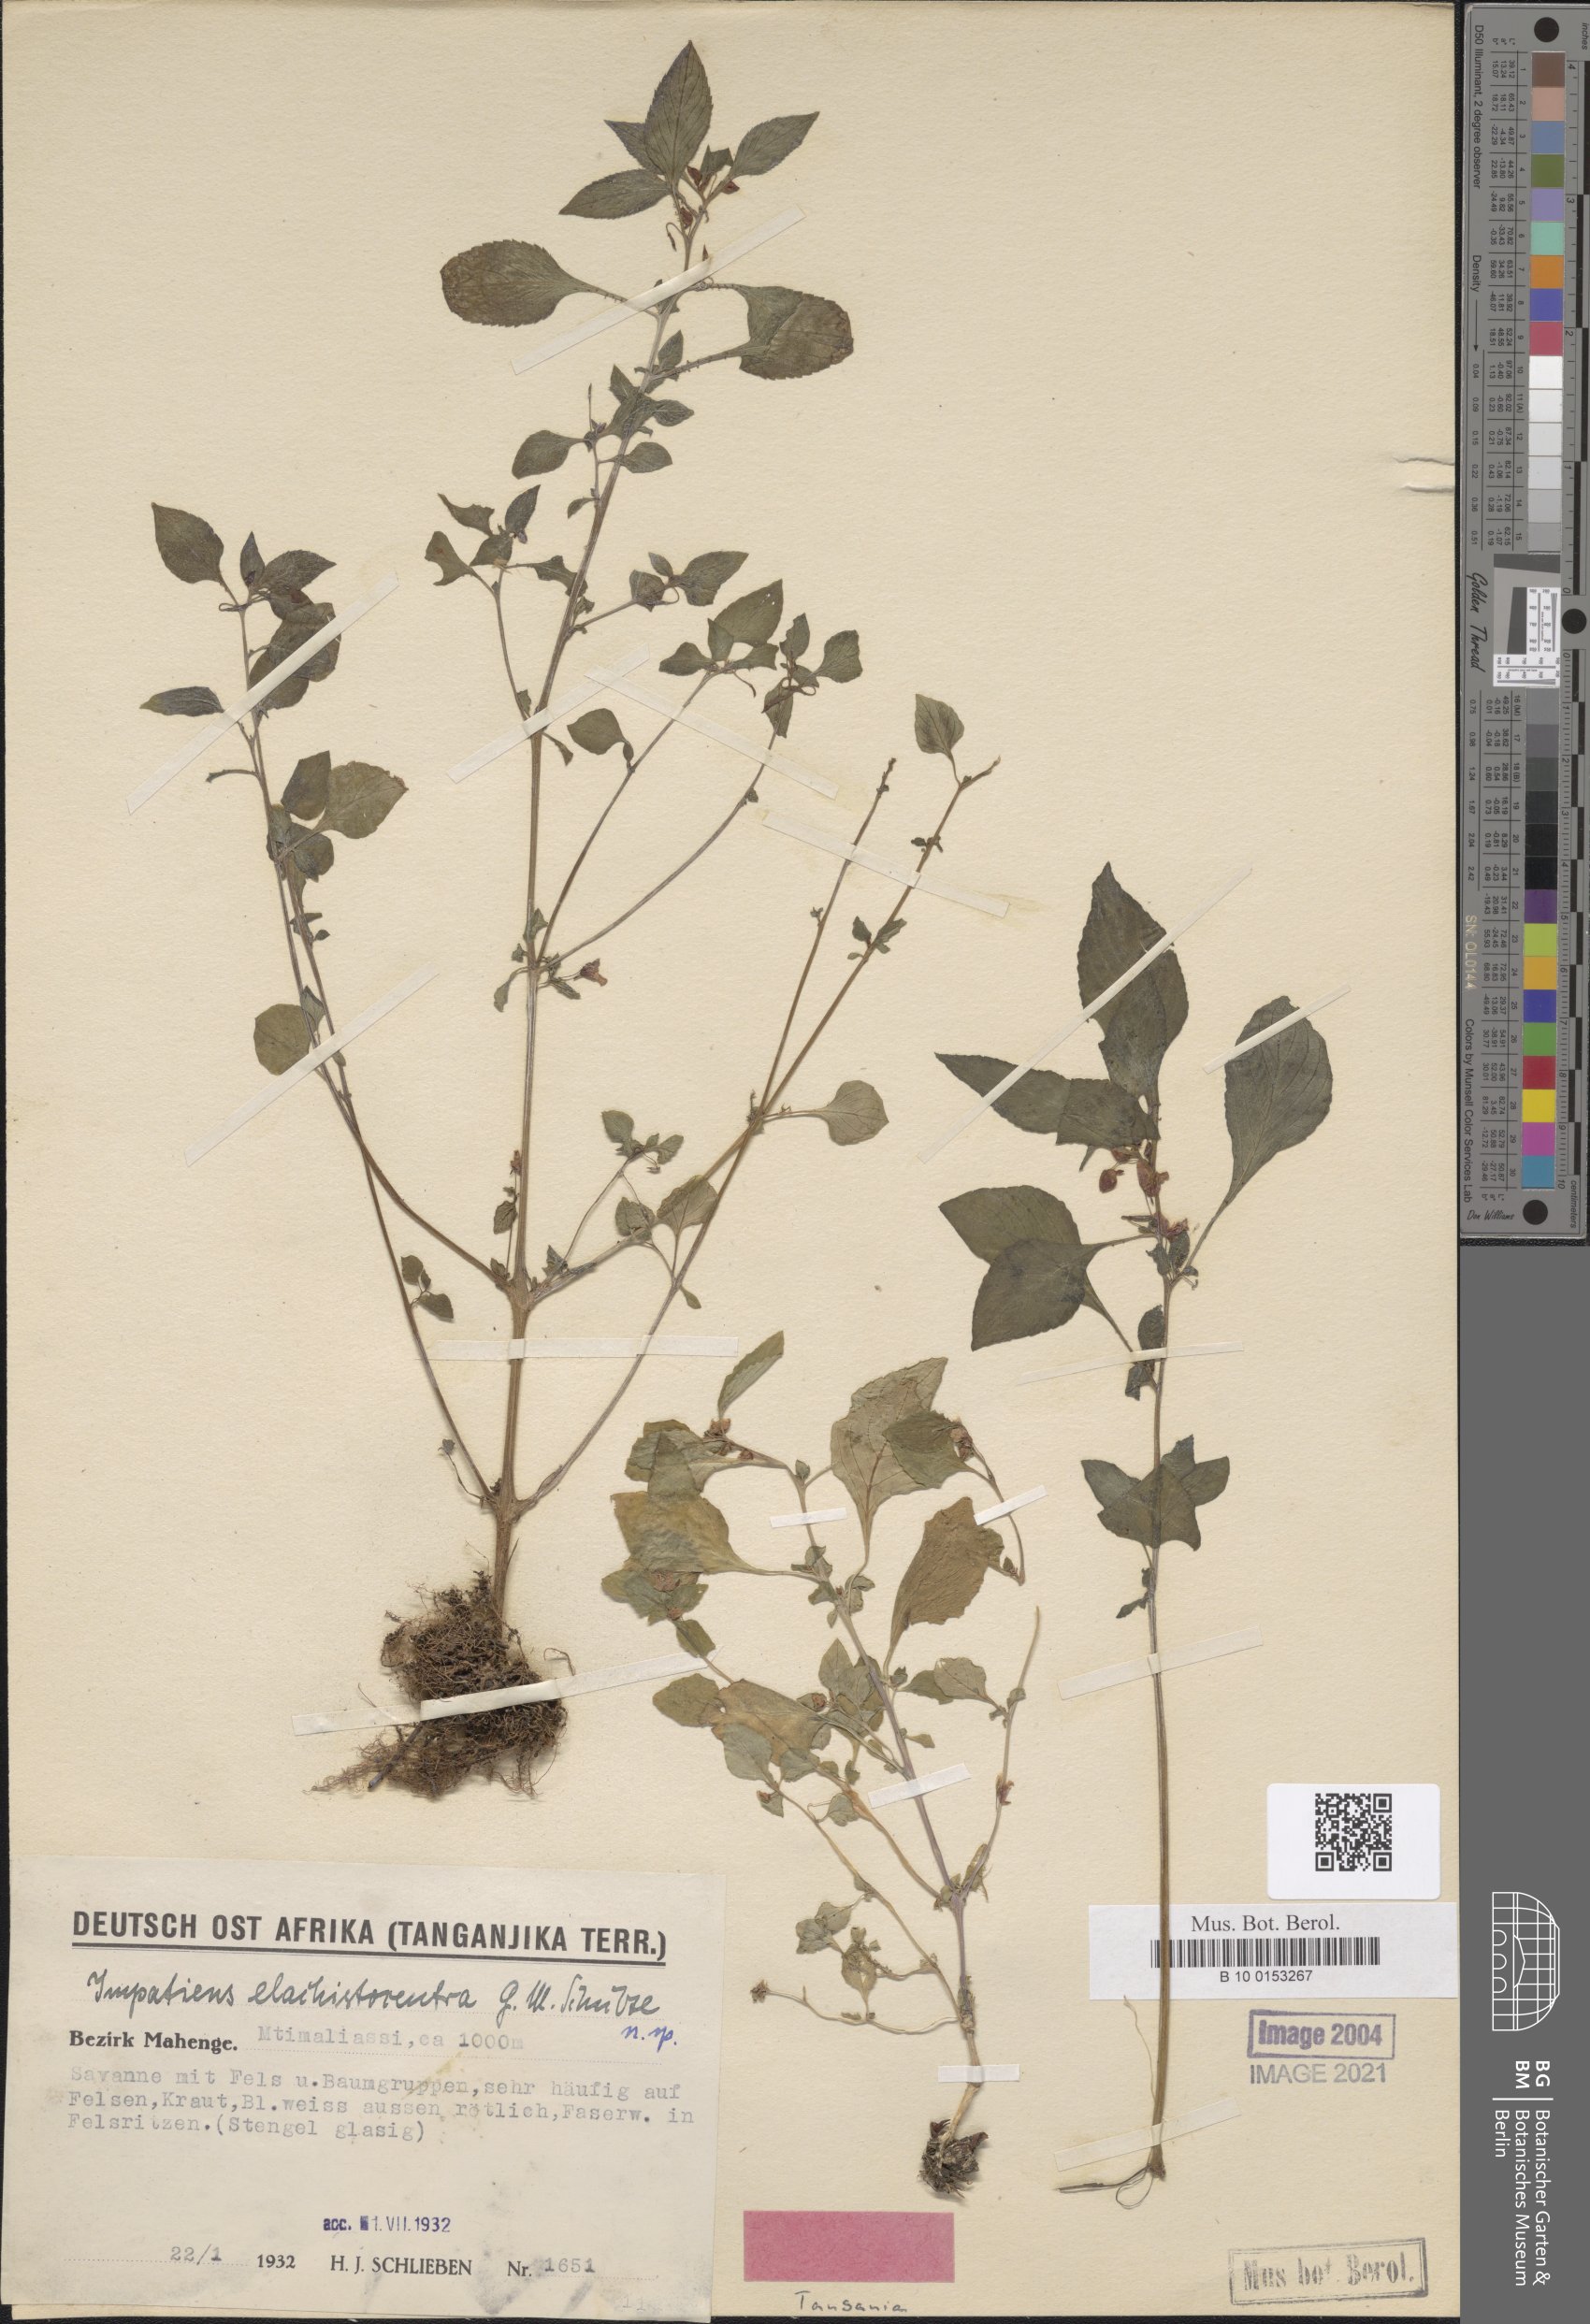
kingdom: Plantae
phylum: Tracheophyta
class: Magnoliopsida
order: Ericales
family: Balsaminaceae
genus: Impatiens
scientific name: Impatiens elachistocentra
